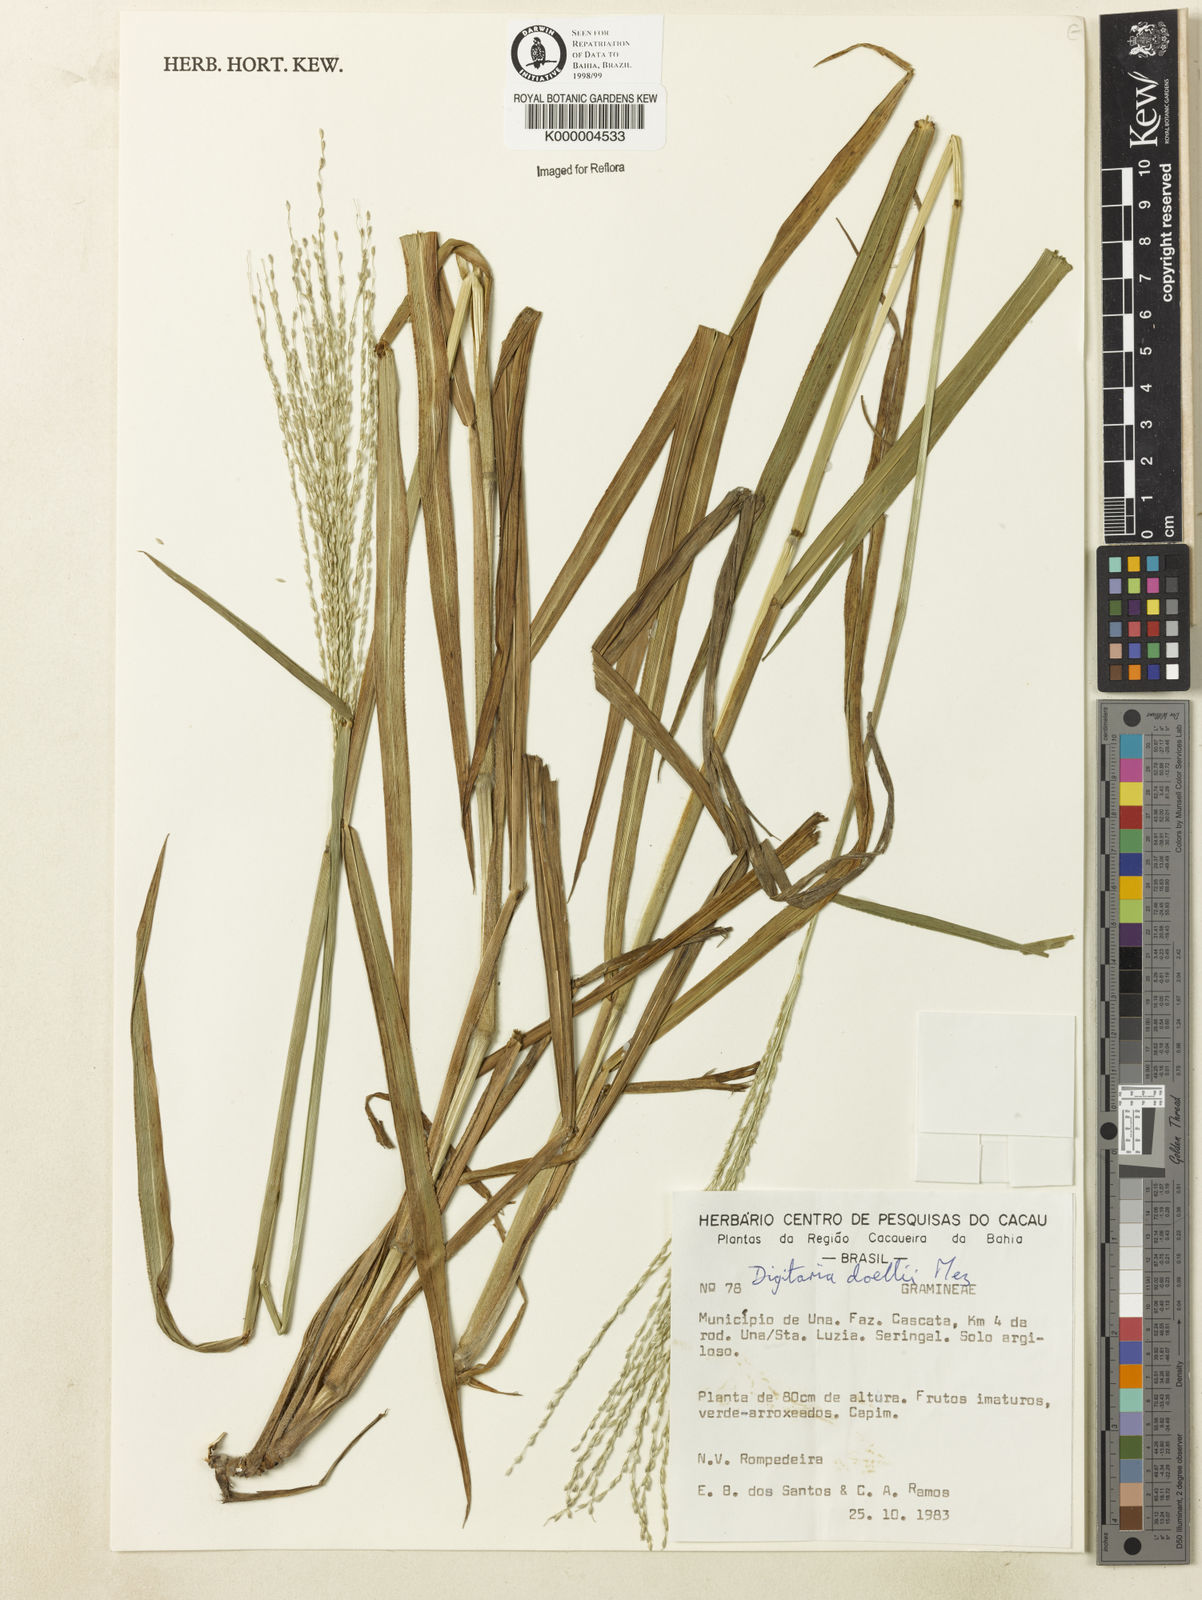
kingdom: Plantae
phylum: Tracheophyta
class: Liliopsida
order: Poales
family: Poaceae
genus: Digitaria
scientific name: Digitaria doellii
